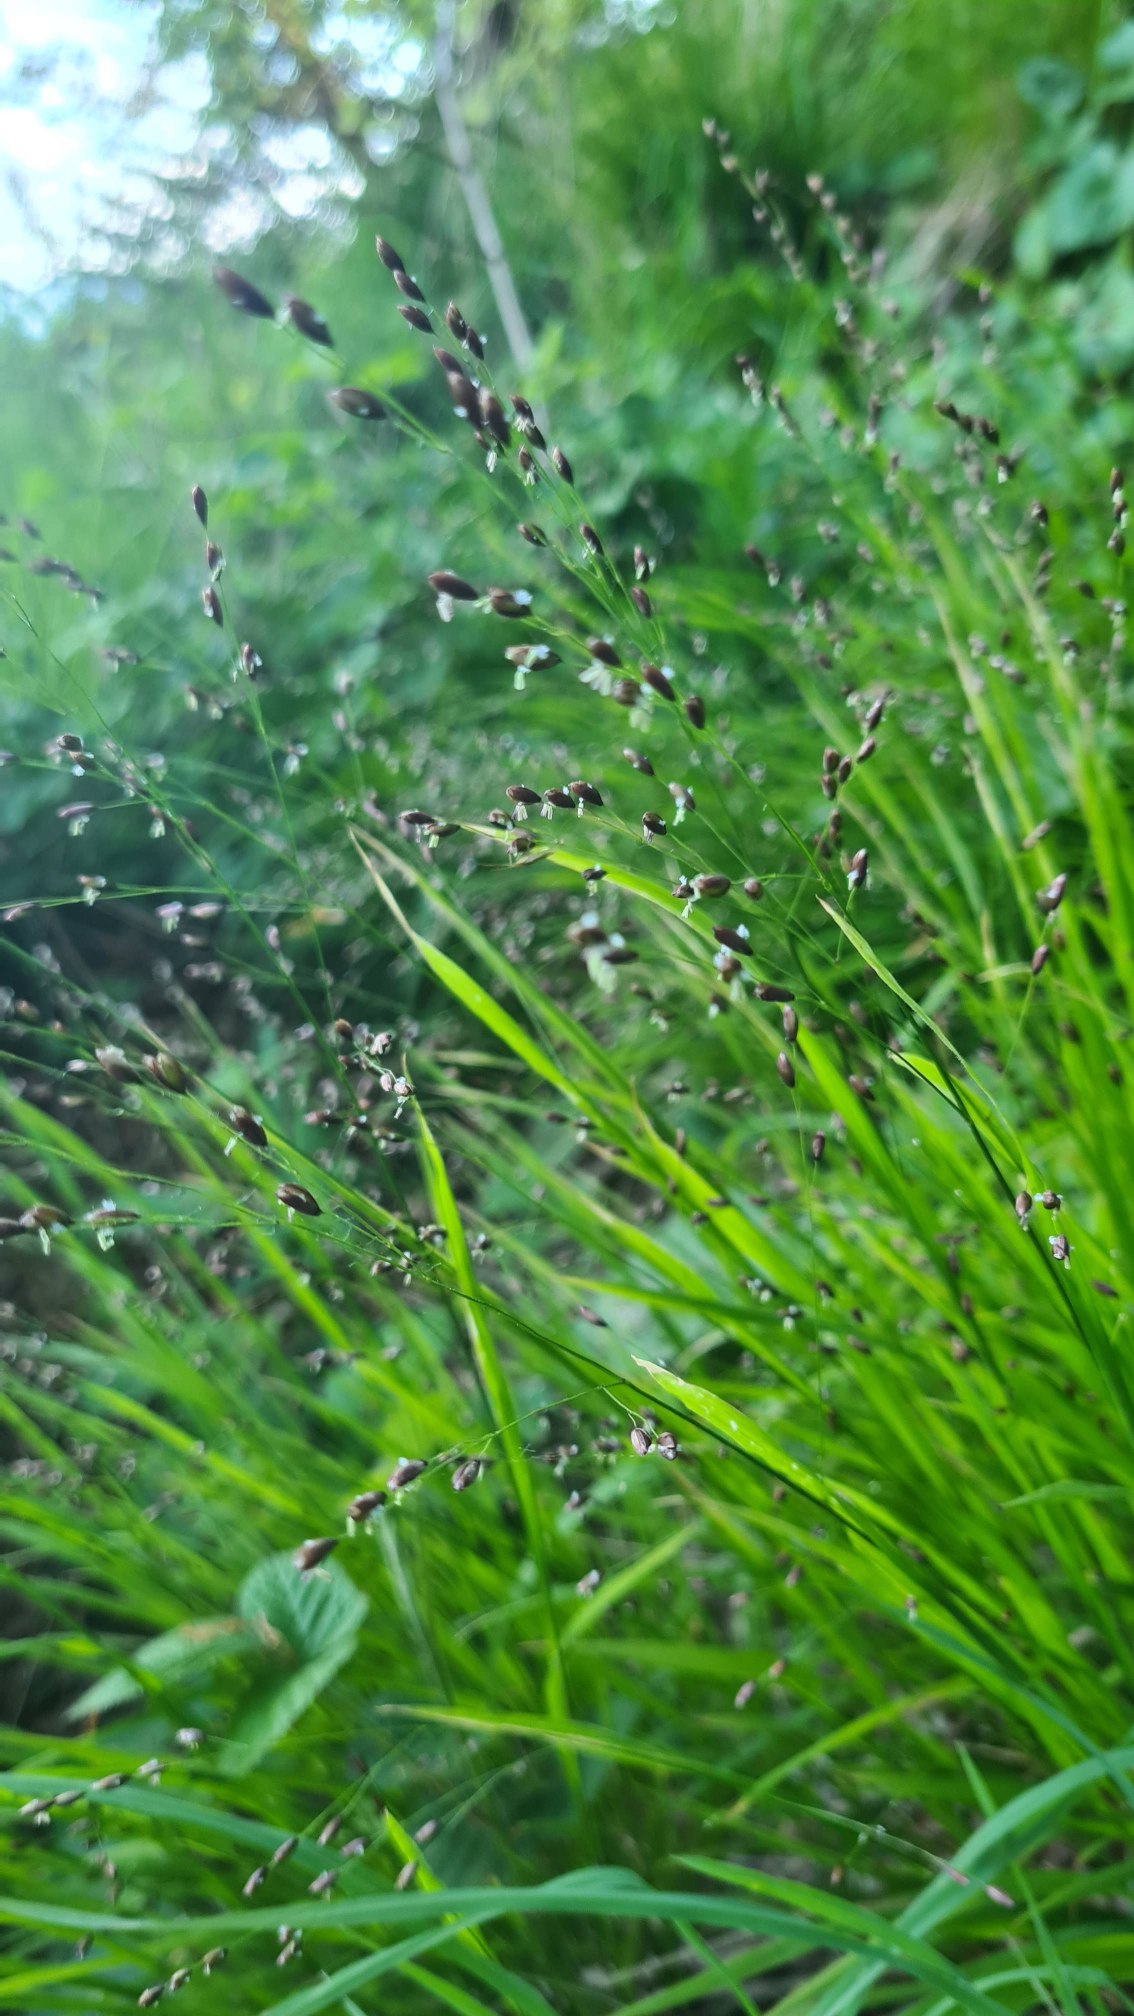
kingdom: Plantae
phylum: Tracheophyta
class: Liliopsida
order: Poales
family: Poaceae
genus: Melica
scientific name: Melica uniflora
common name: Enblomstret flitteraks
